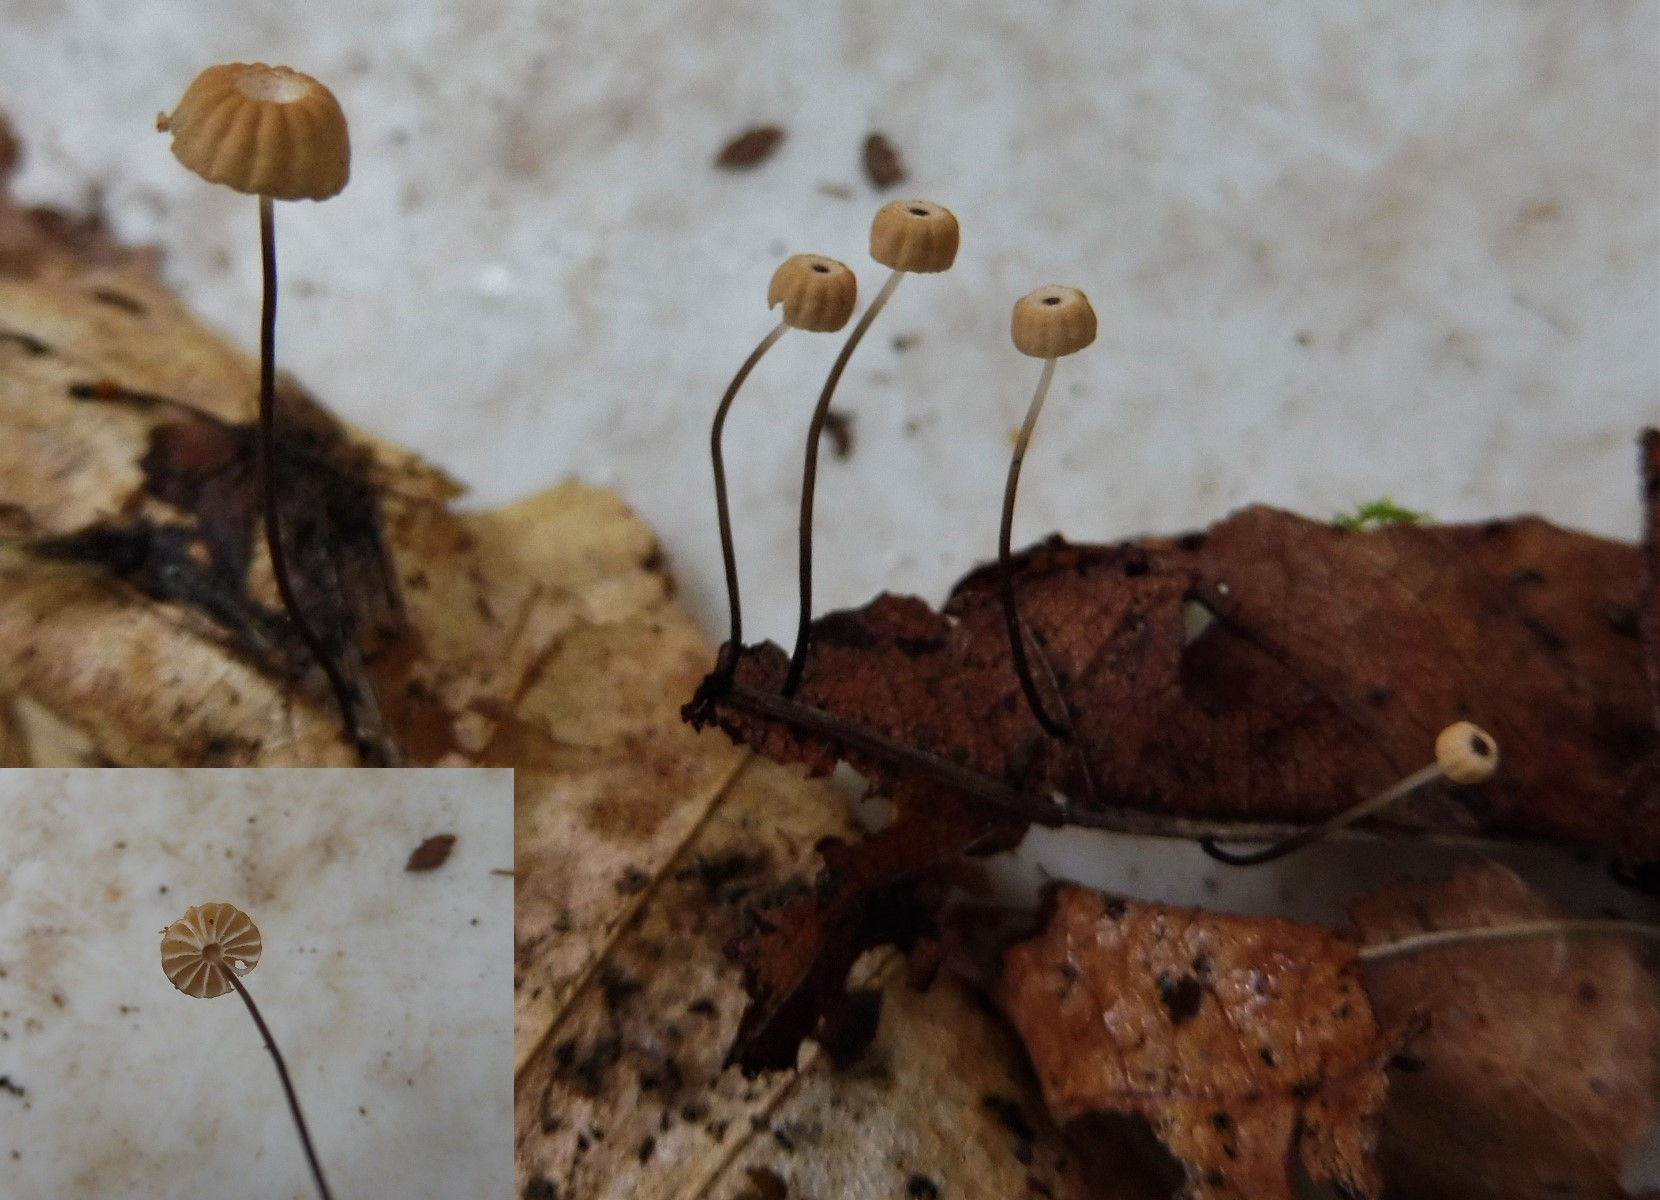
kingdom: Fungi
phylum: Basidiomycota
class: Agaricomycetes
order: Agaricales
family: Marasmiaceae
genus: Marasmius
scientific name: Marasmius bulliardii
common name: furet bruskhat
